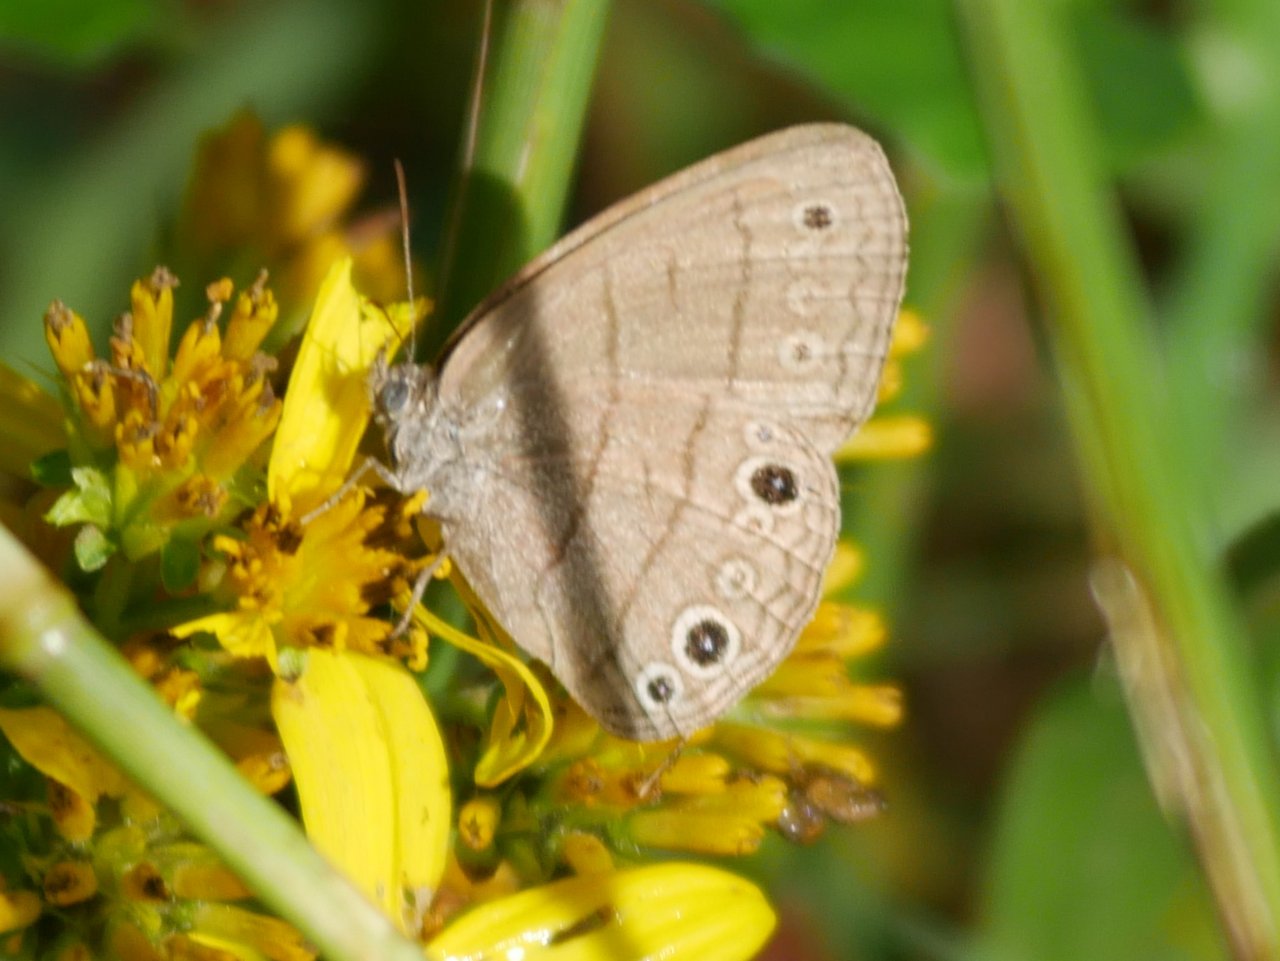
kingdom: Animalia
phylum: Arthropoda
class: Insecta
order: Lepidoptera
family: Nymphalidae
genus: Hermeuptychia
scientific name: Hermeuptychia hermes
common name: Carolina Satyr
